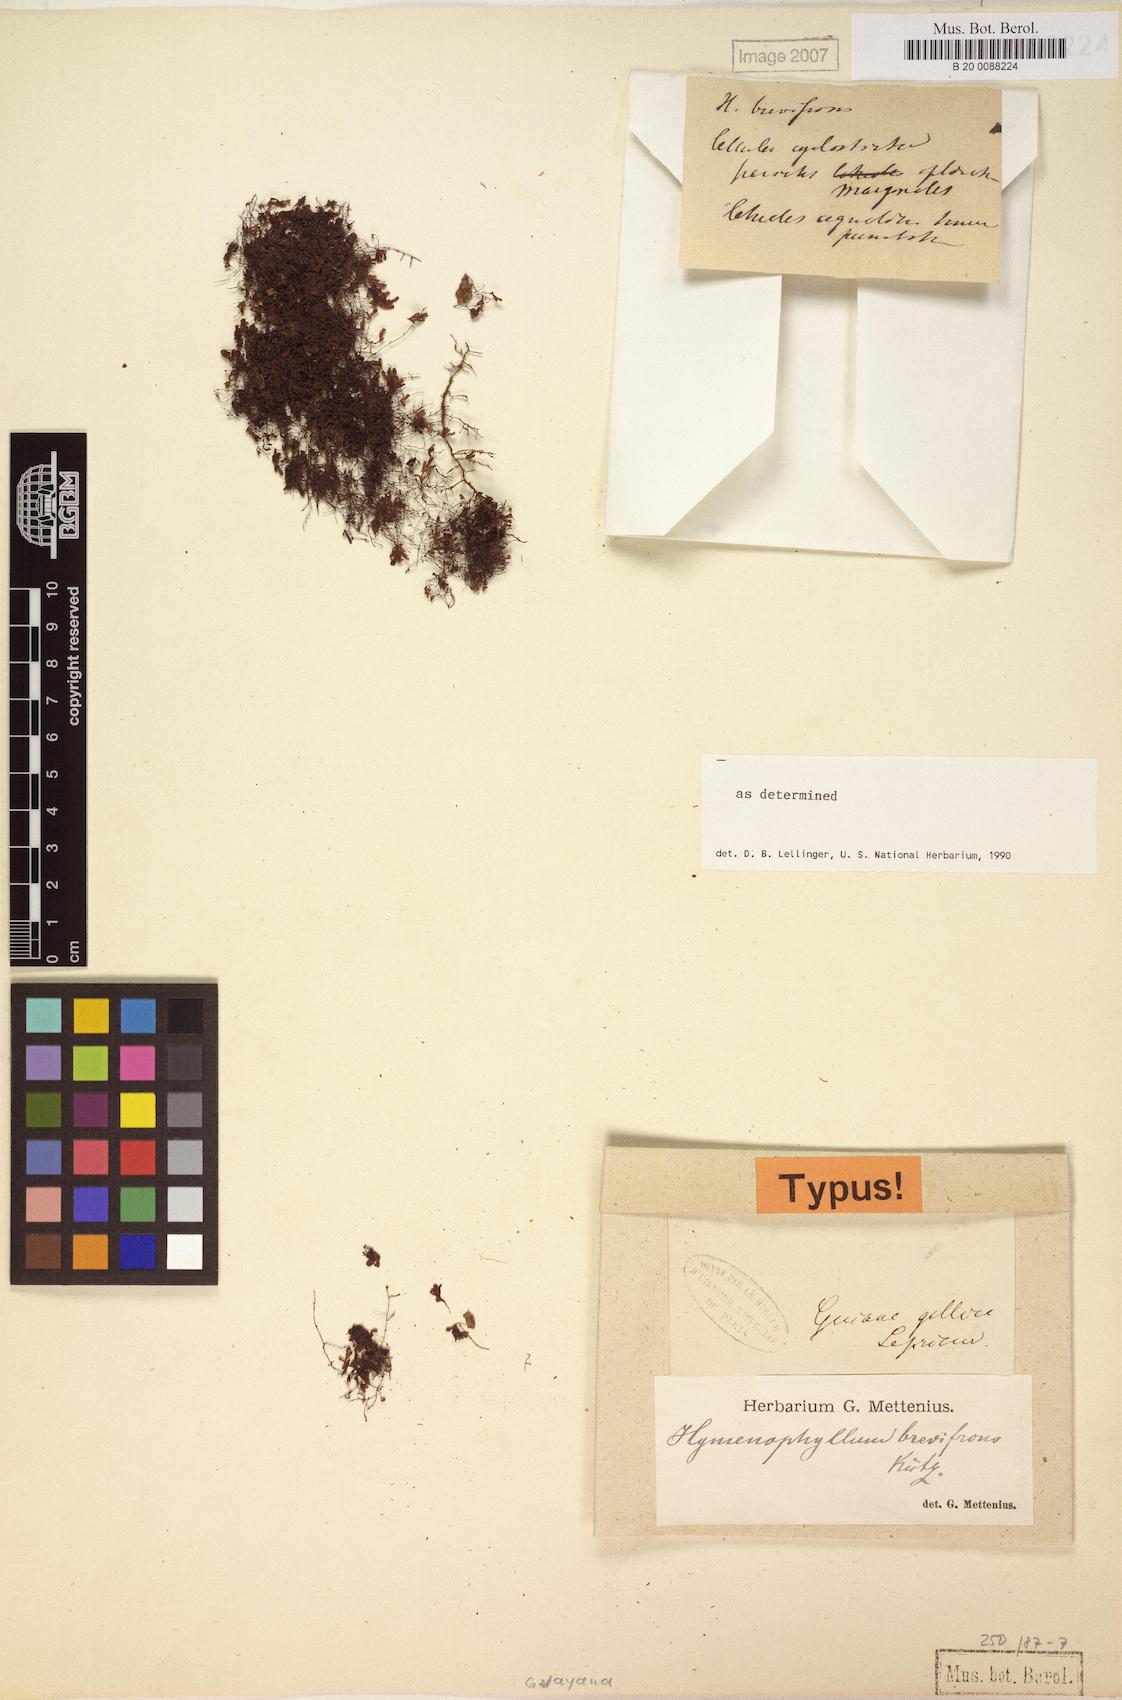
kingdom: Plantae
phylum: Tracheophyta
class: Polypodiopsida
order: Hymenophyllales
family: Hymenophyllaceae
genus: Hymenophyllum
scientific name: Hymenophyllum brevifrons
